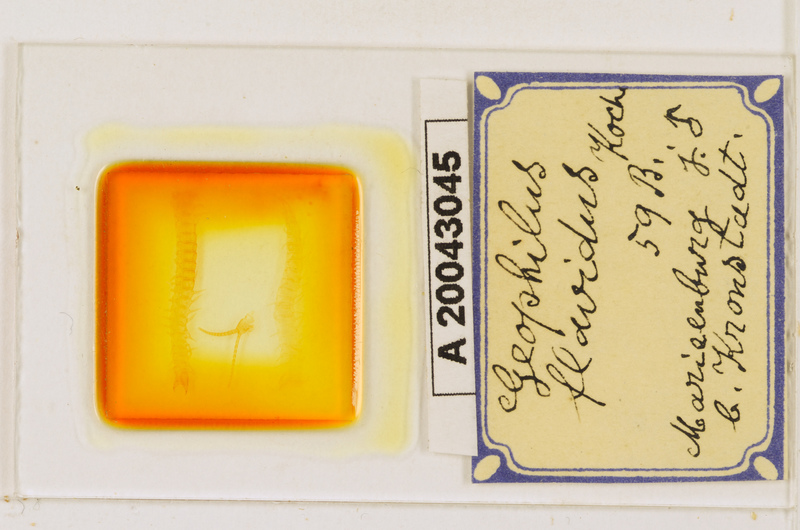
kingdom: Animalia
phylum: Arthropoda
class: Chilopoda
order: Geophilomorpha
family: Geophilidae
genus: Clinopodes
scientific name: Clinopodes flavidus
